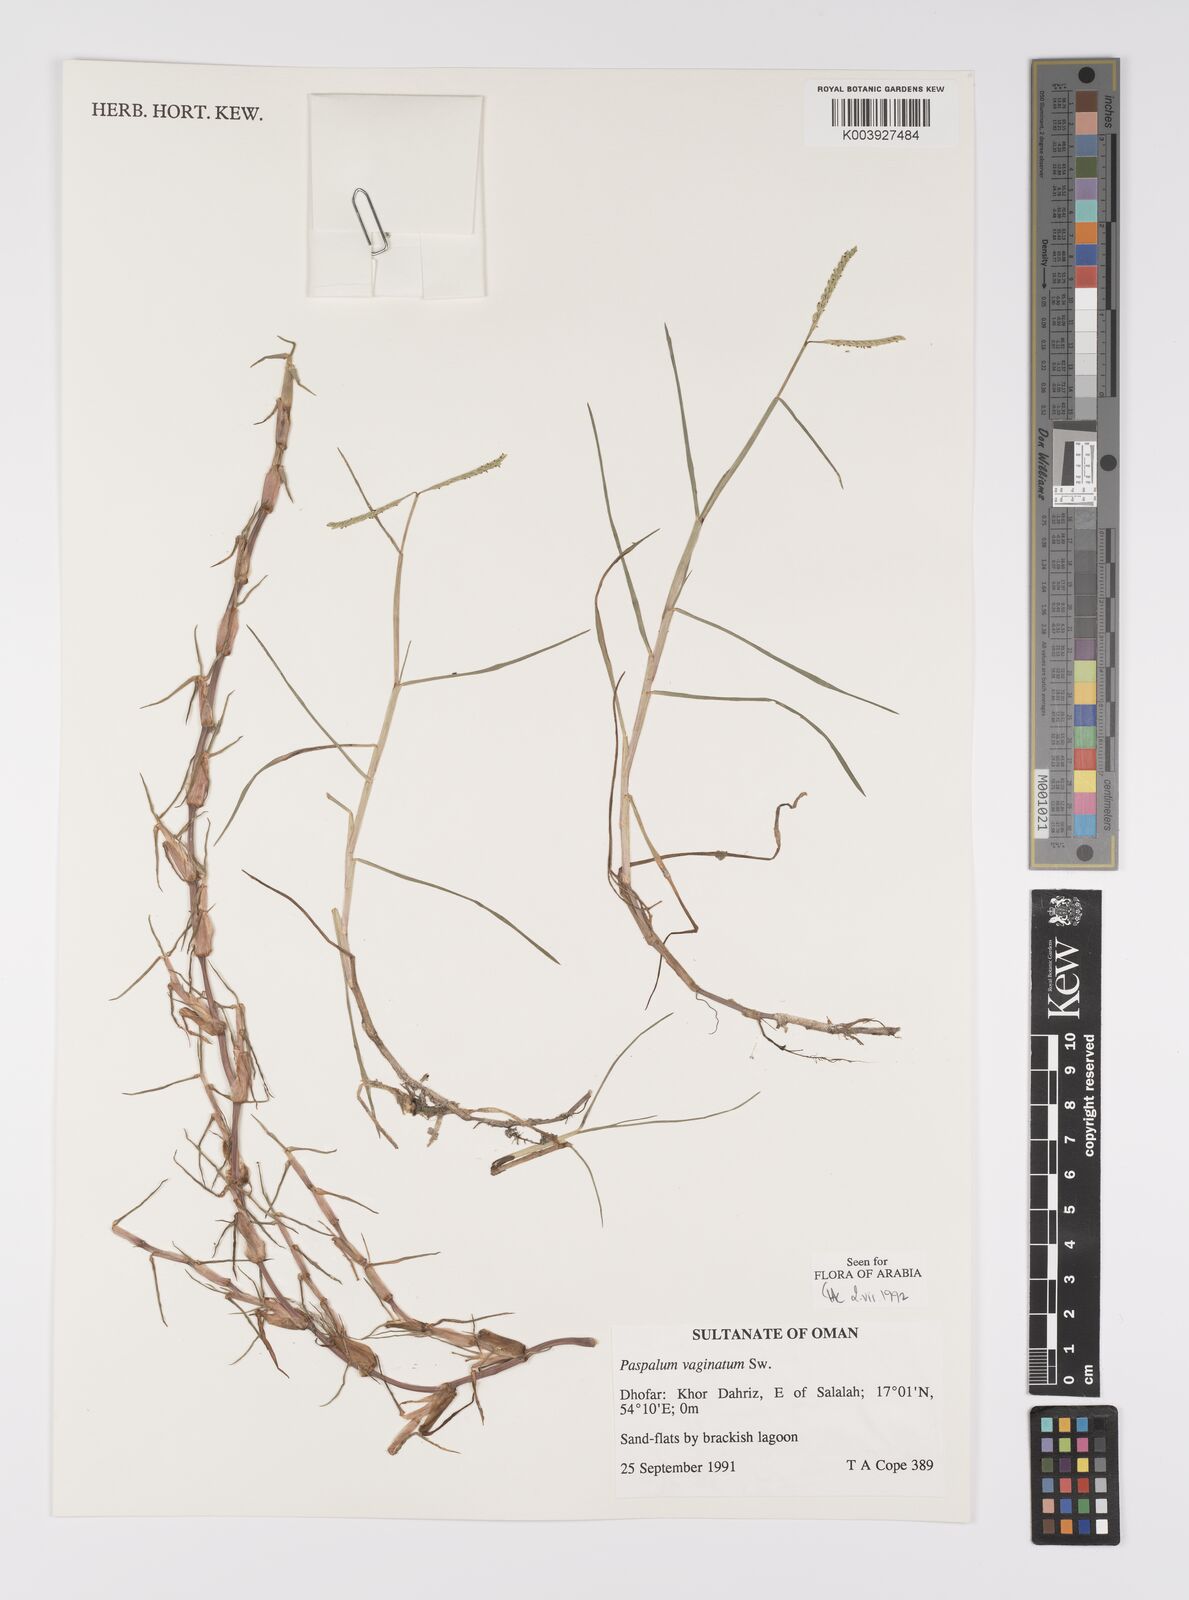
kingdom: Plantae
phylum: Tracheophyta
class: Liliopsida
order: Poales
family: Poaceae
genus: Paspalum
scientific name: Paspalum vaginatum
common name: Seashore paspalum
